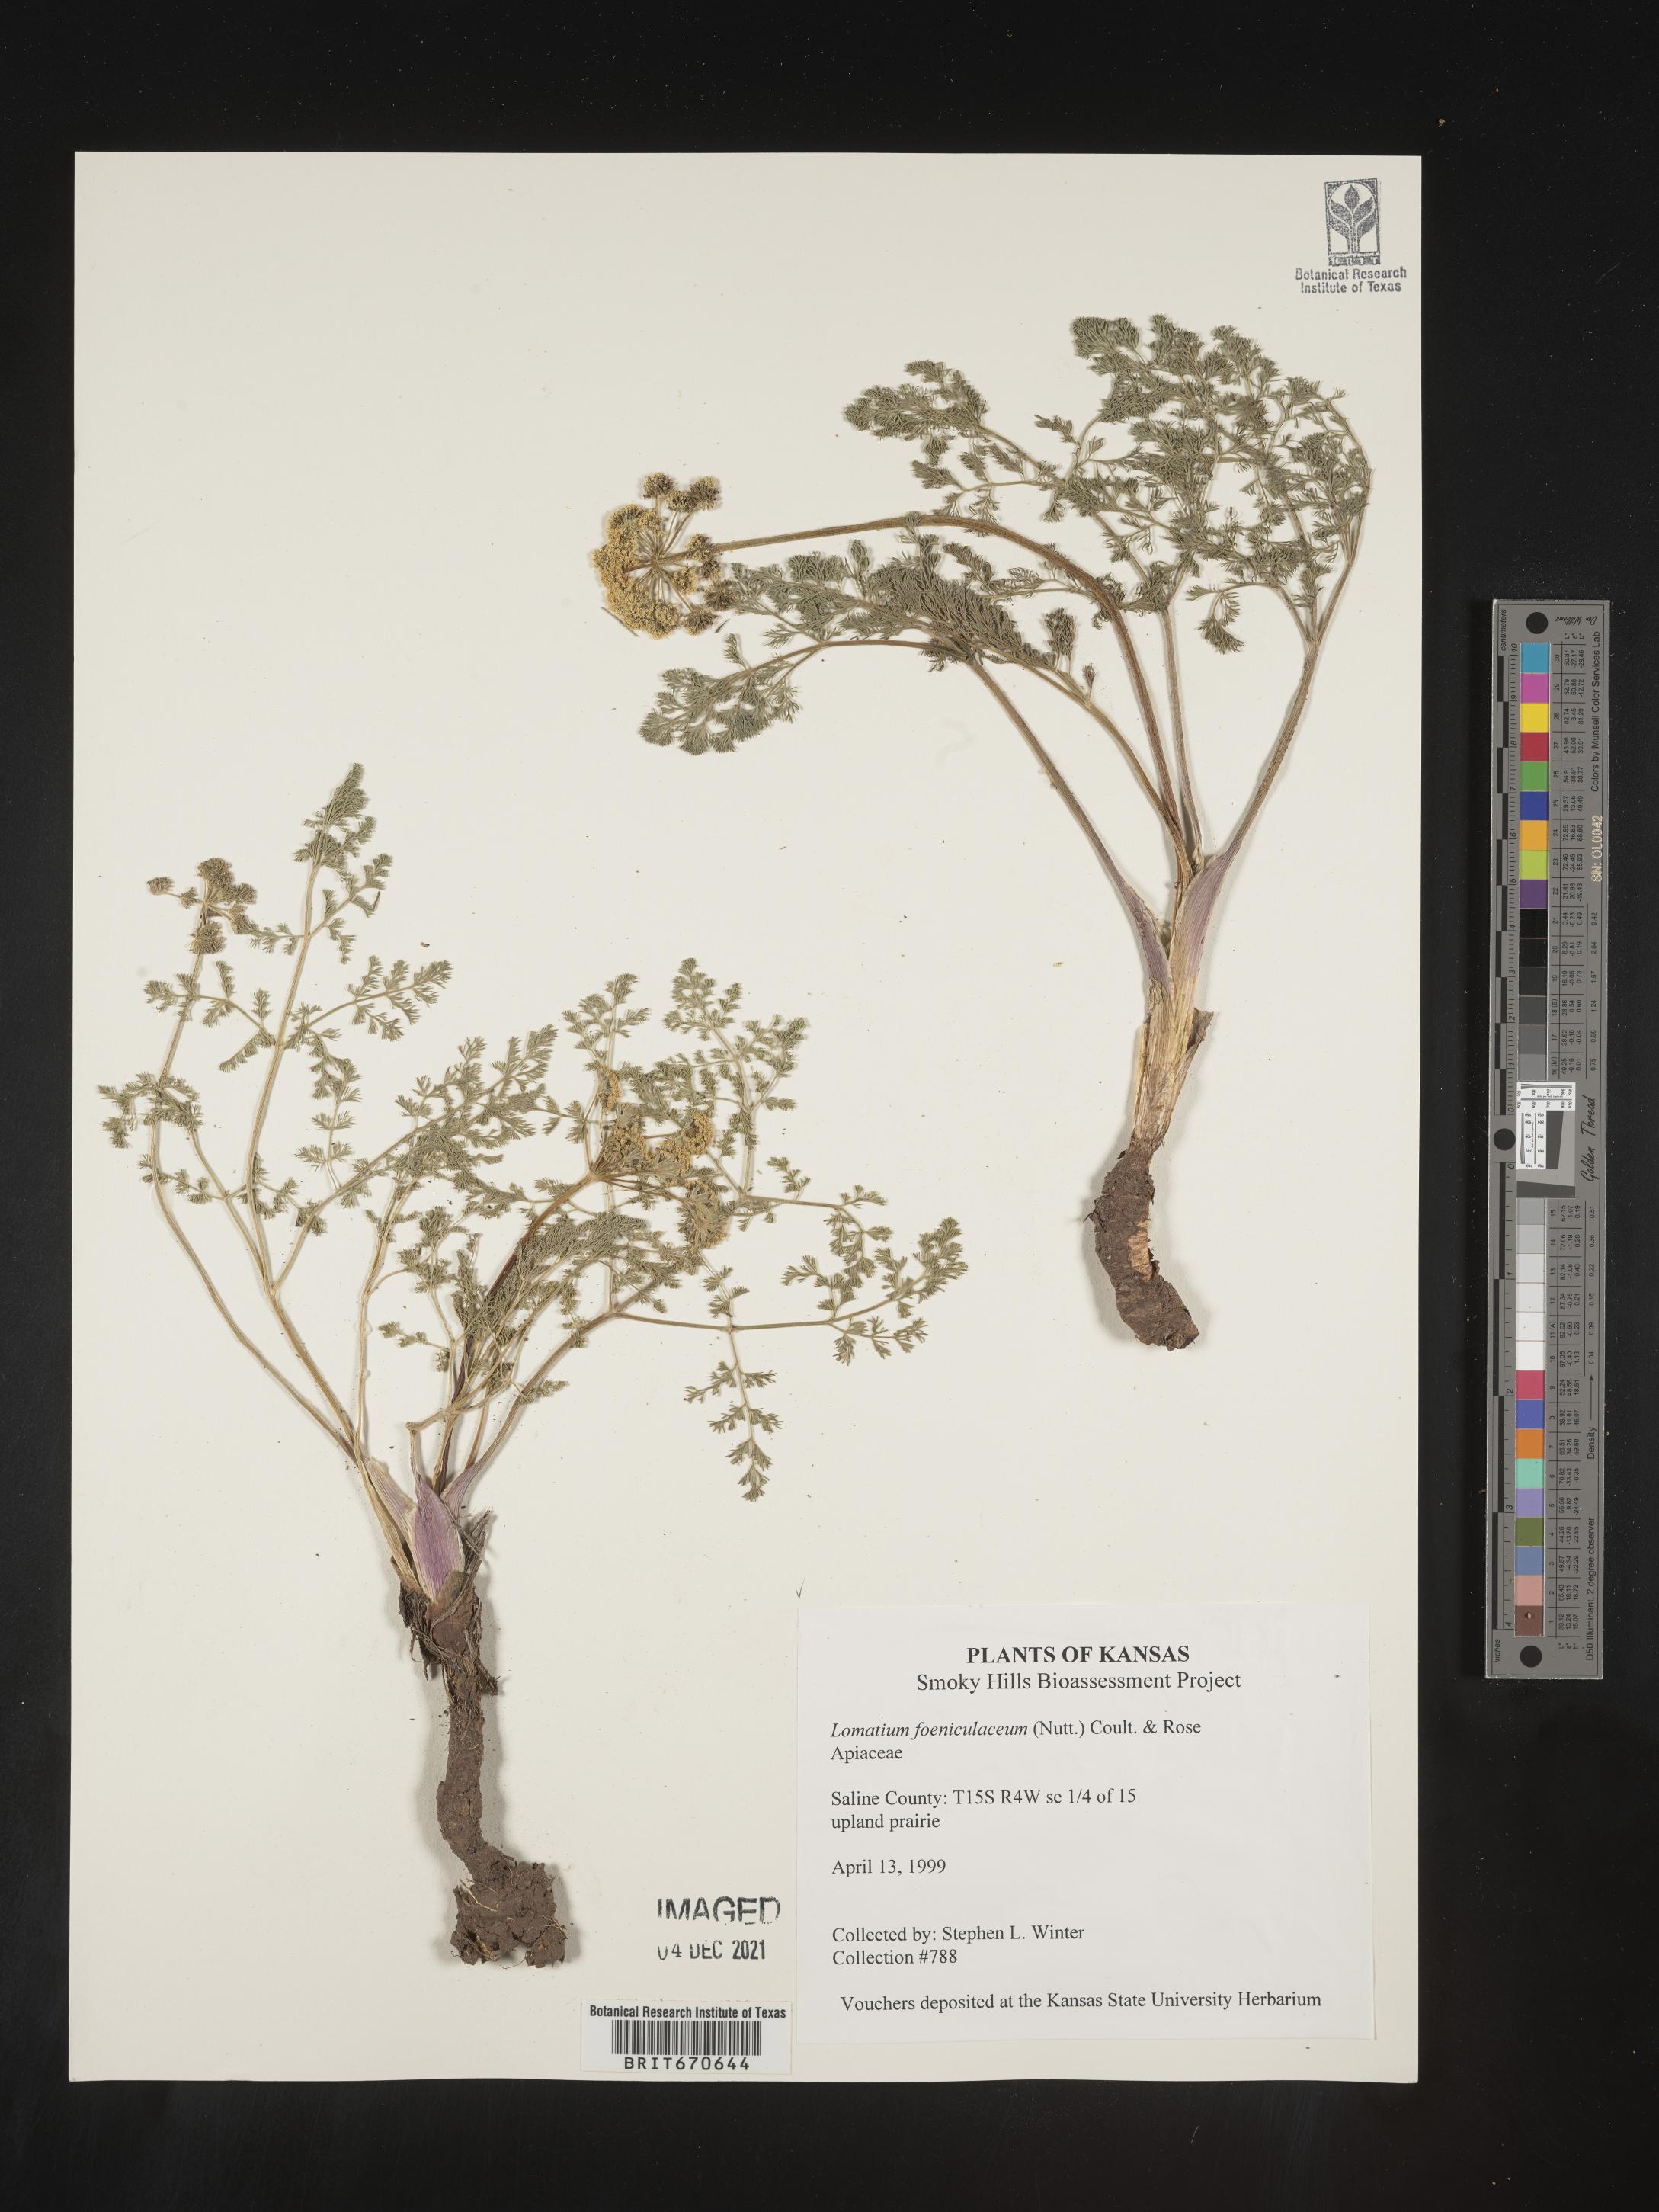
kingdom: Plantae
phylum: Tracheophyta
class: Magnoliopsida
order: Apiales
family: Apiaceae
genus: Lomatium
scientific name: Lomatium foeniculaceum
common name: Desert-parsley
